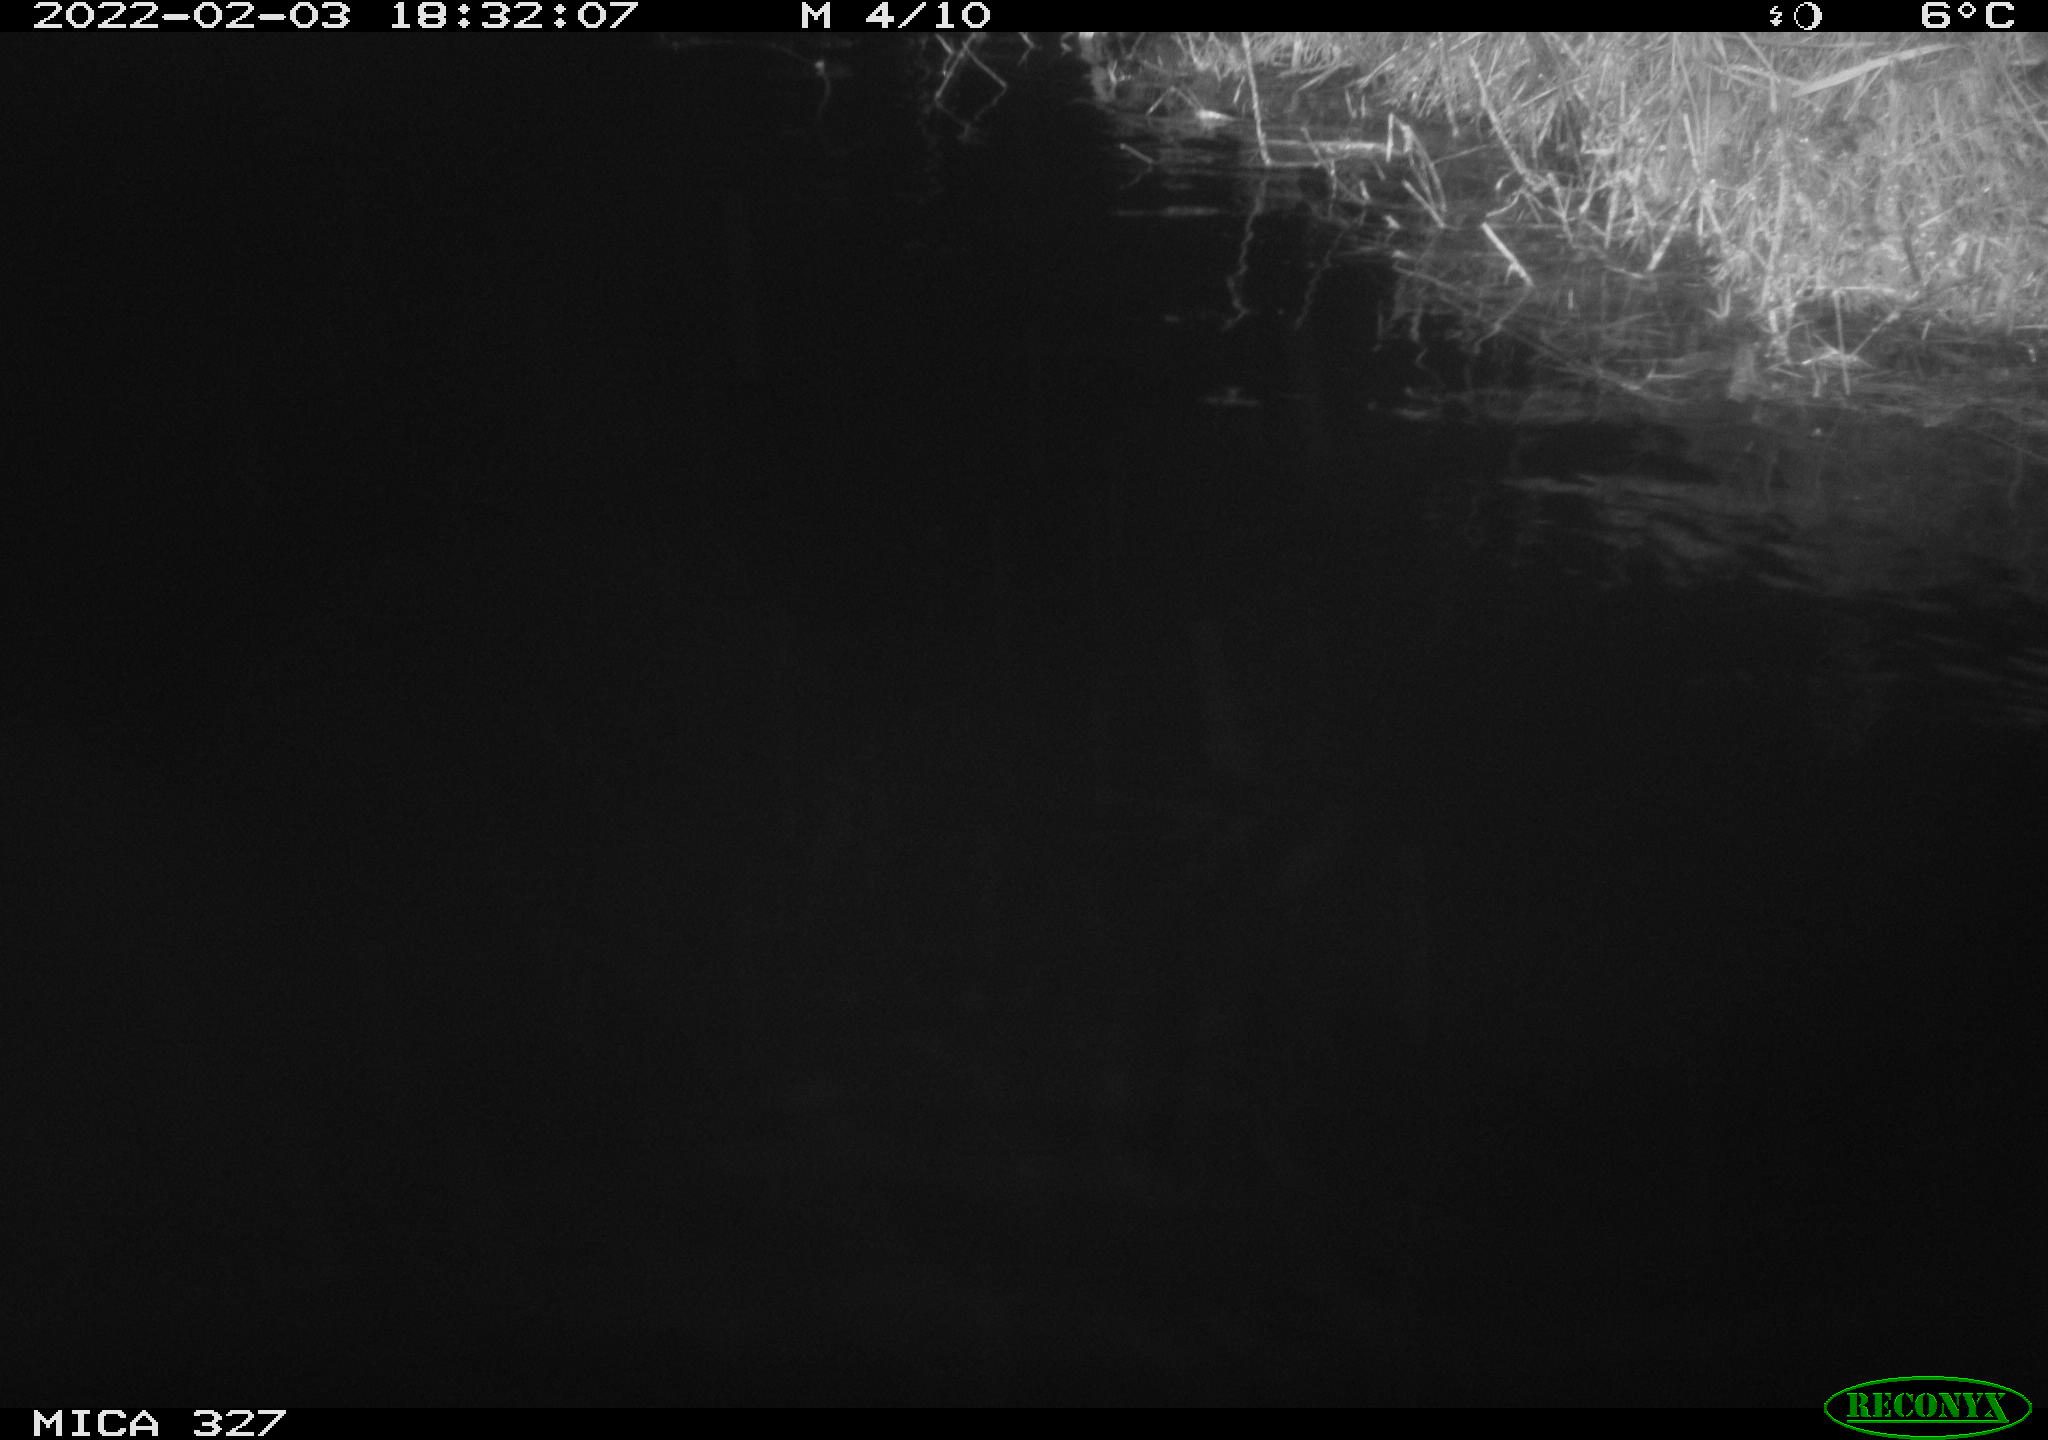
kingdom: Animalia
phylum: Chordata
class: Mammalia
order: Rodentia
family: Cricetidae
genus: Ondatra
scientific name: Ondatra zibethicus
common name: Muskrat
